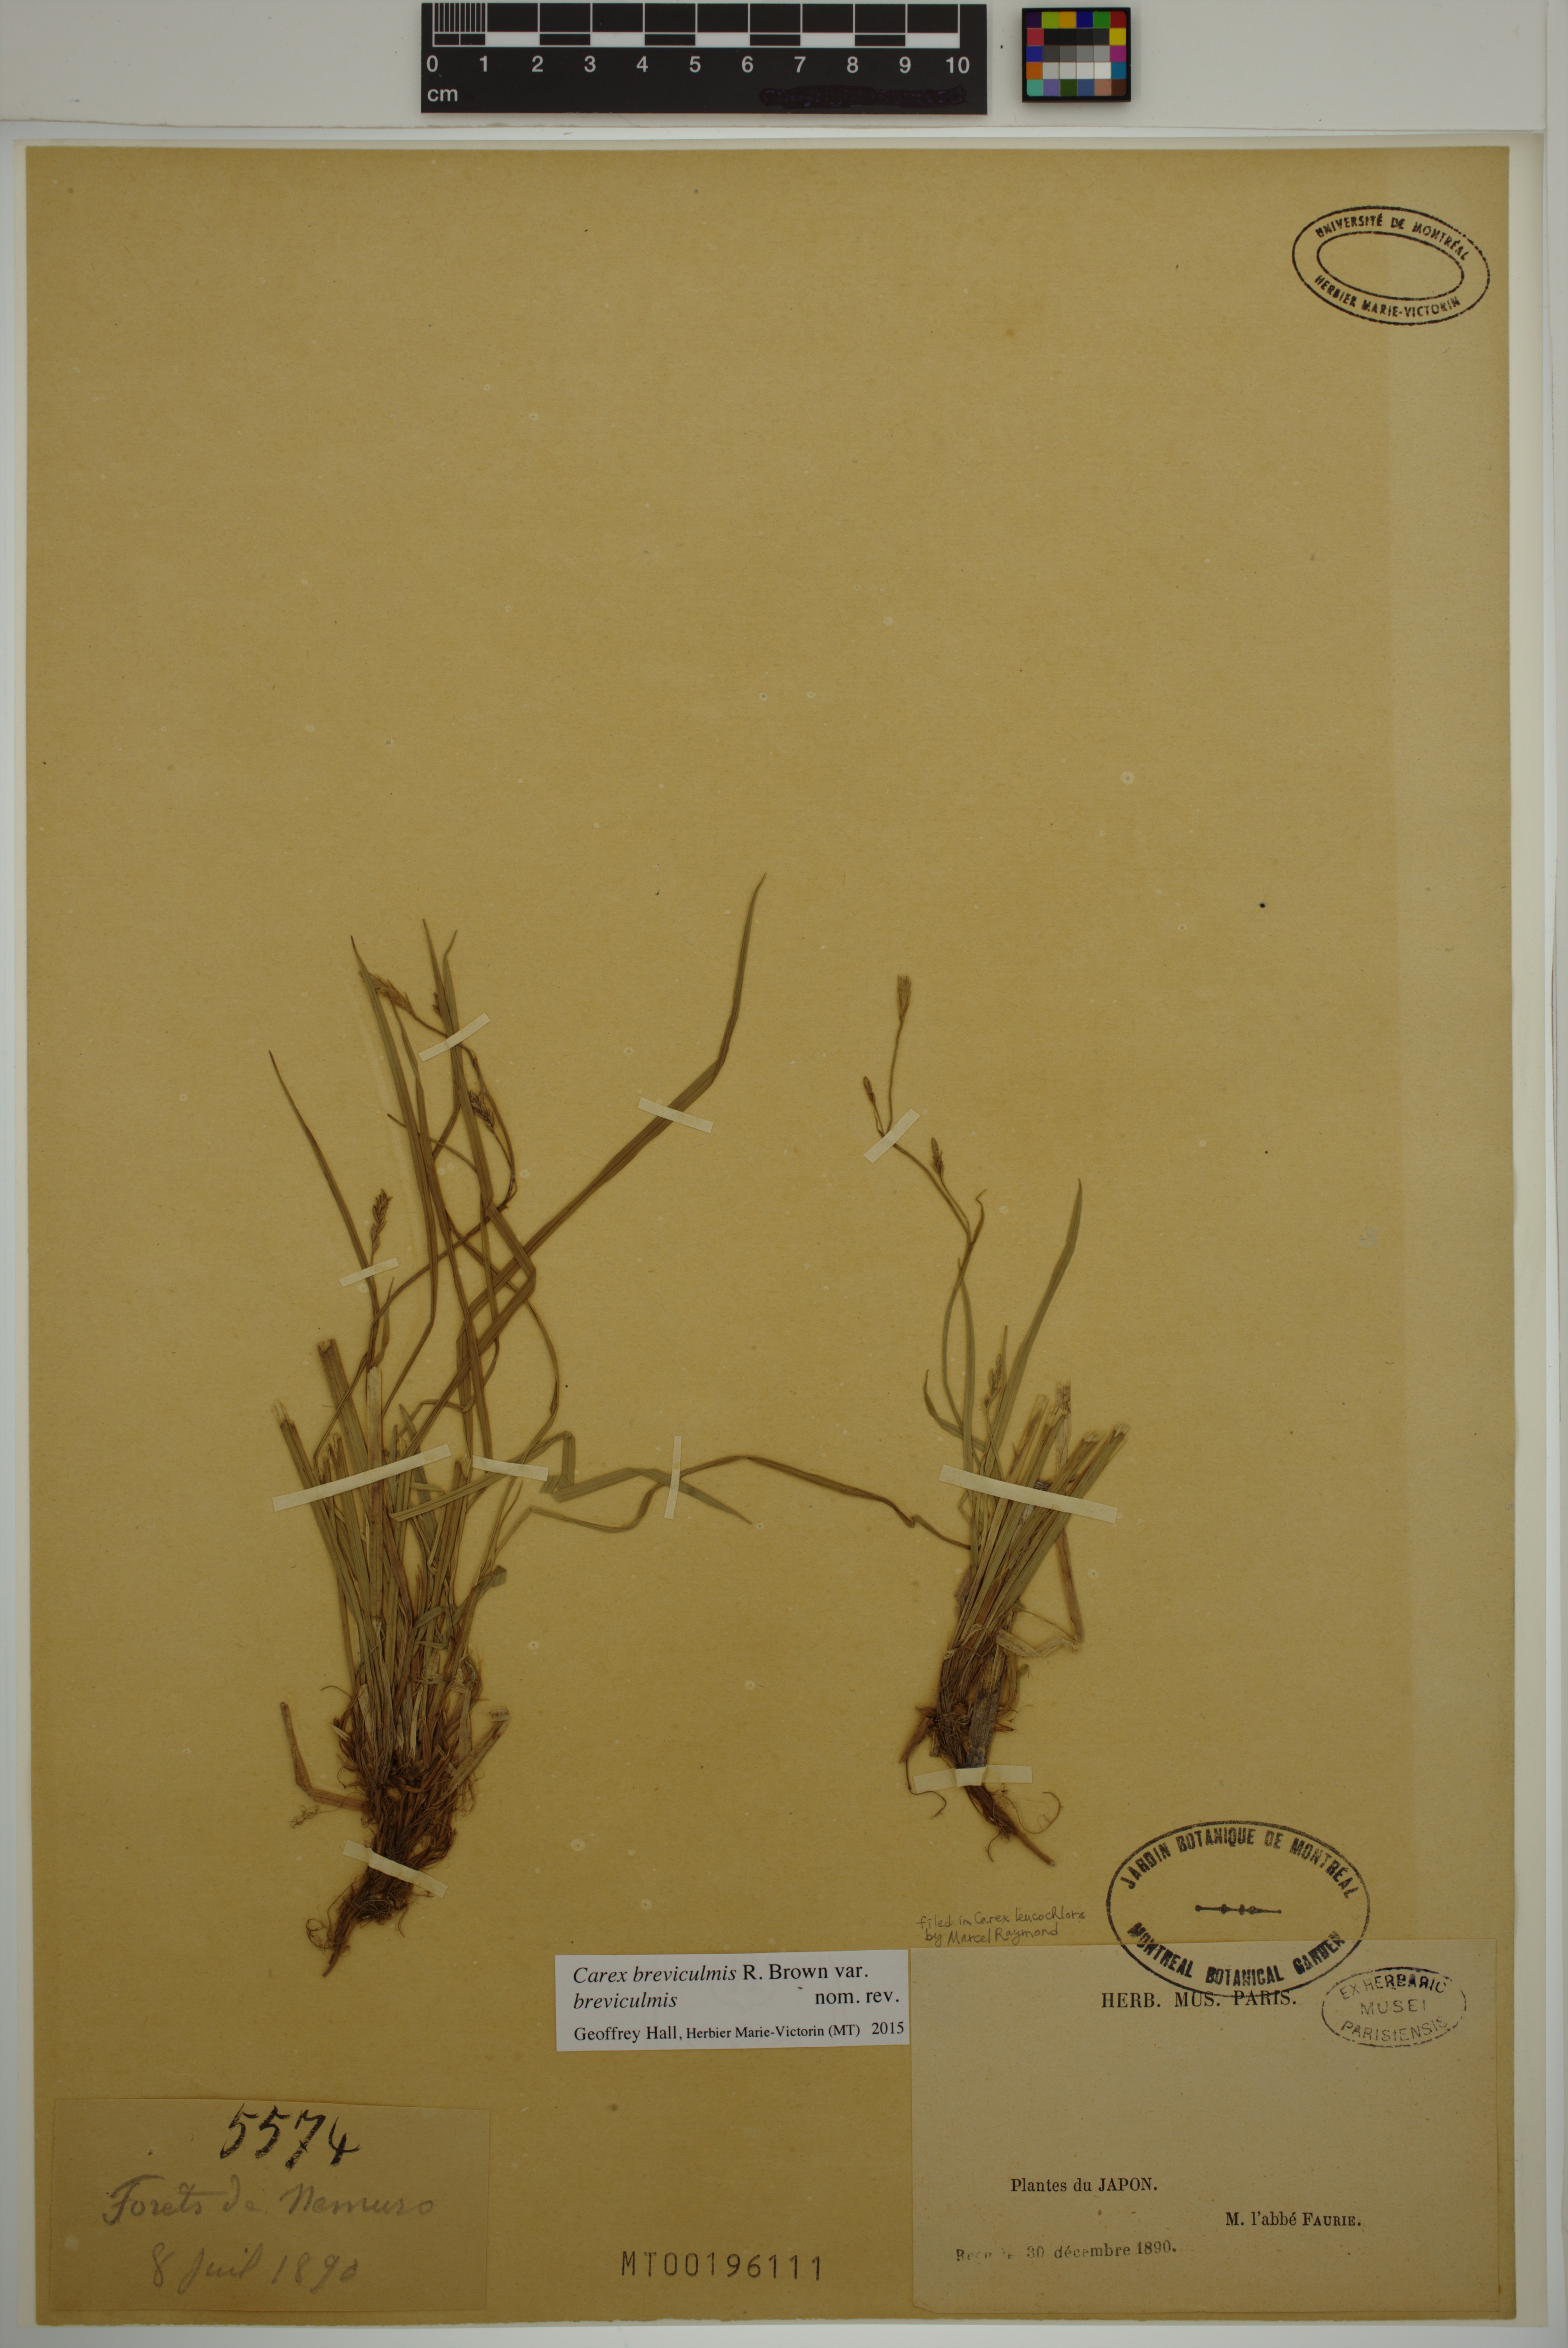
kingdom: Plantae
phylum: Tracheophyta
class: Liliopsida
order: Poales
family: Cyperaceae
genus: Carex
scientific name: Carex breviculmis
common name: Asian shortstem sedge
